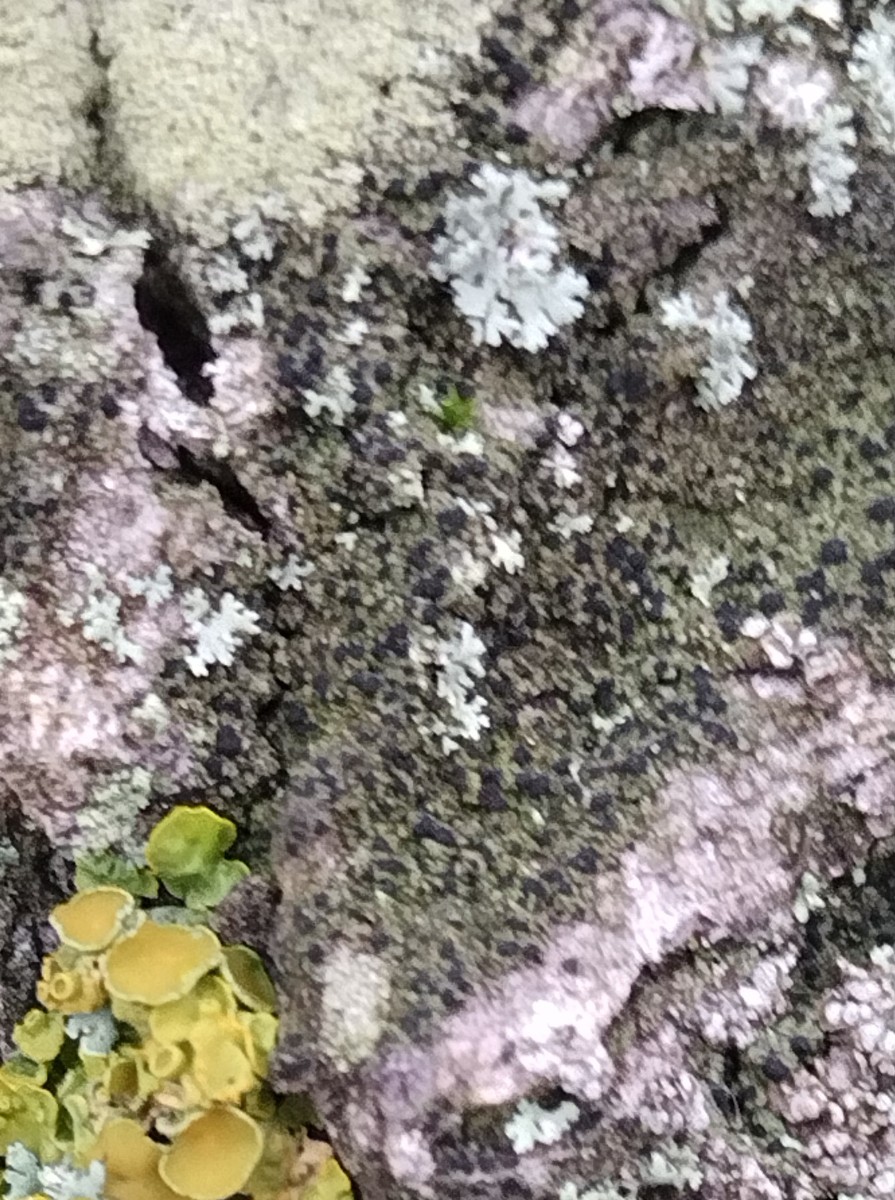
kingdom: Fungi
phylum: Ascomycota
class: Lecanoromycetes
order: Lecanorales
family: Parmeliaceae
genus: Lichen
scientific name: Lichen
